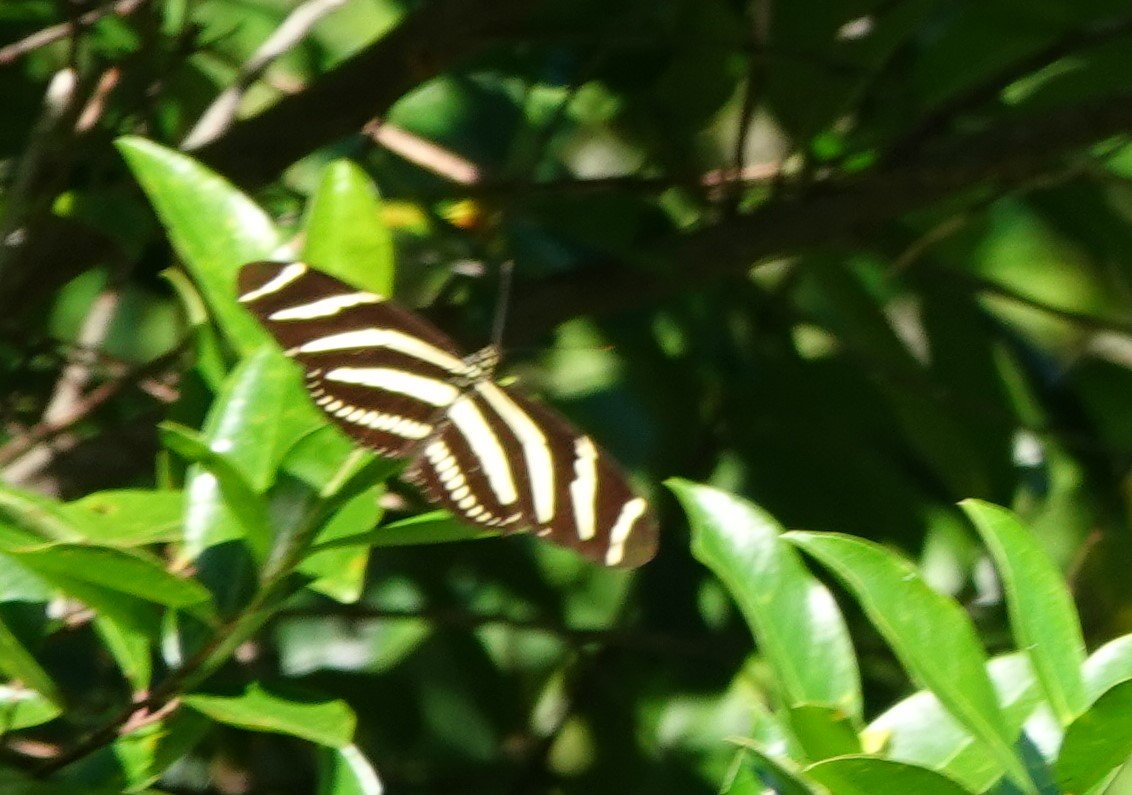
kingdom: Animalia
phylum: Arthropoda
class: Insecta
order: Lepidoptera
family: Nymphalidae
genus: Heliconius
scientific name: Heliconius charithonia
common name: Zebra Longwing
